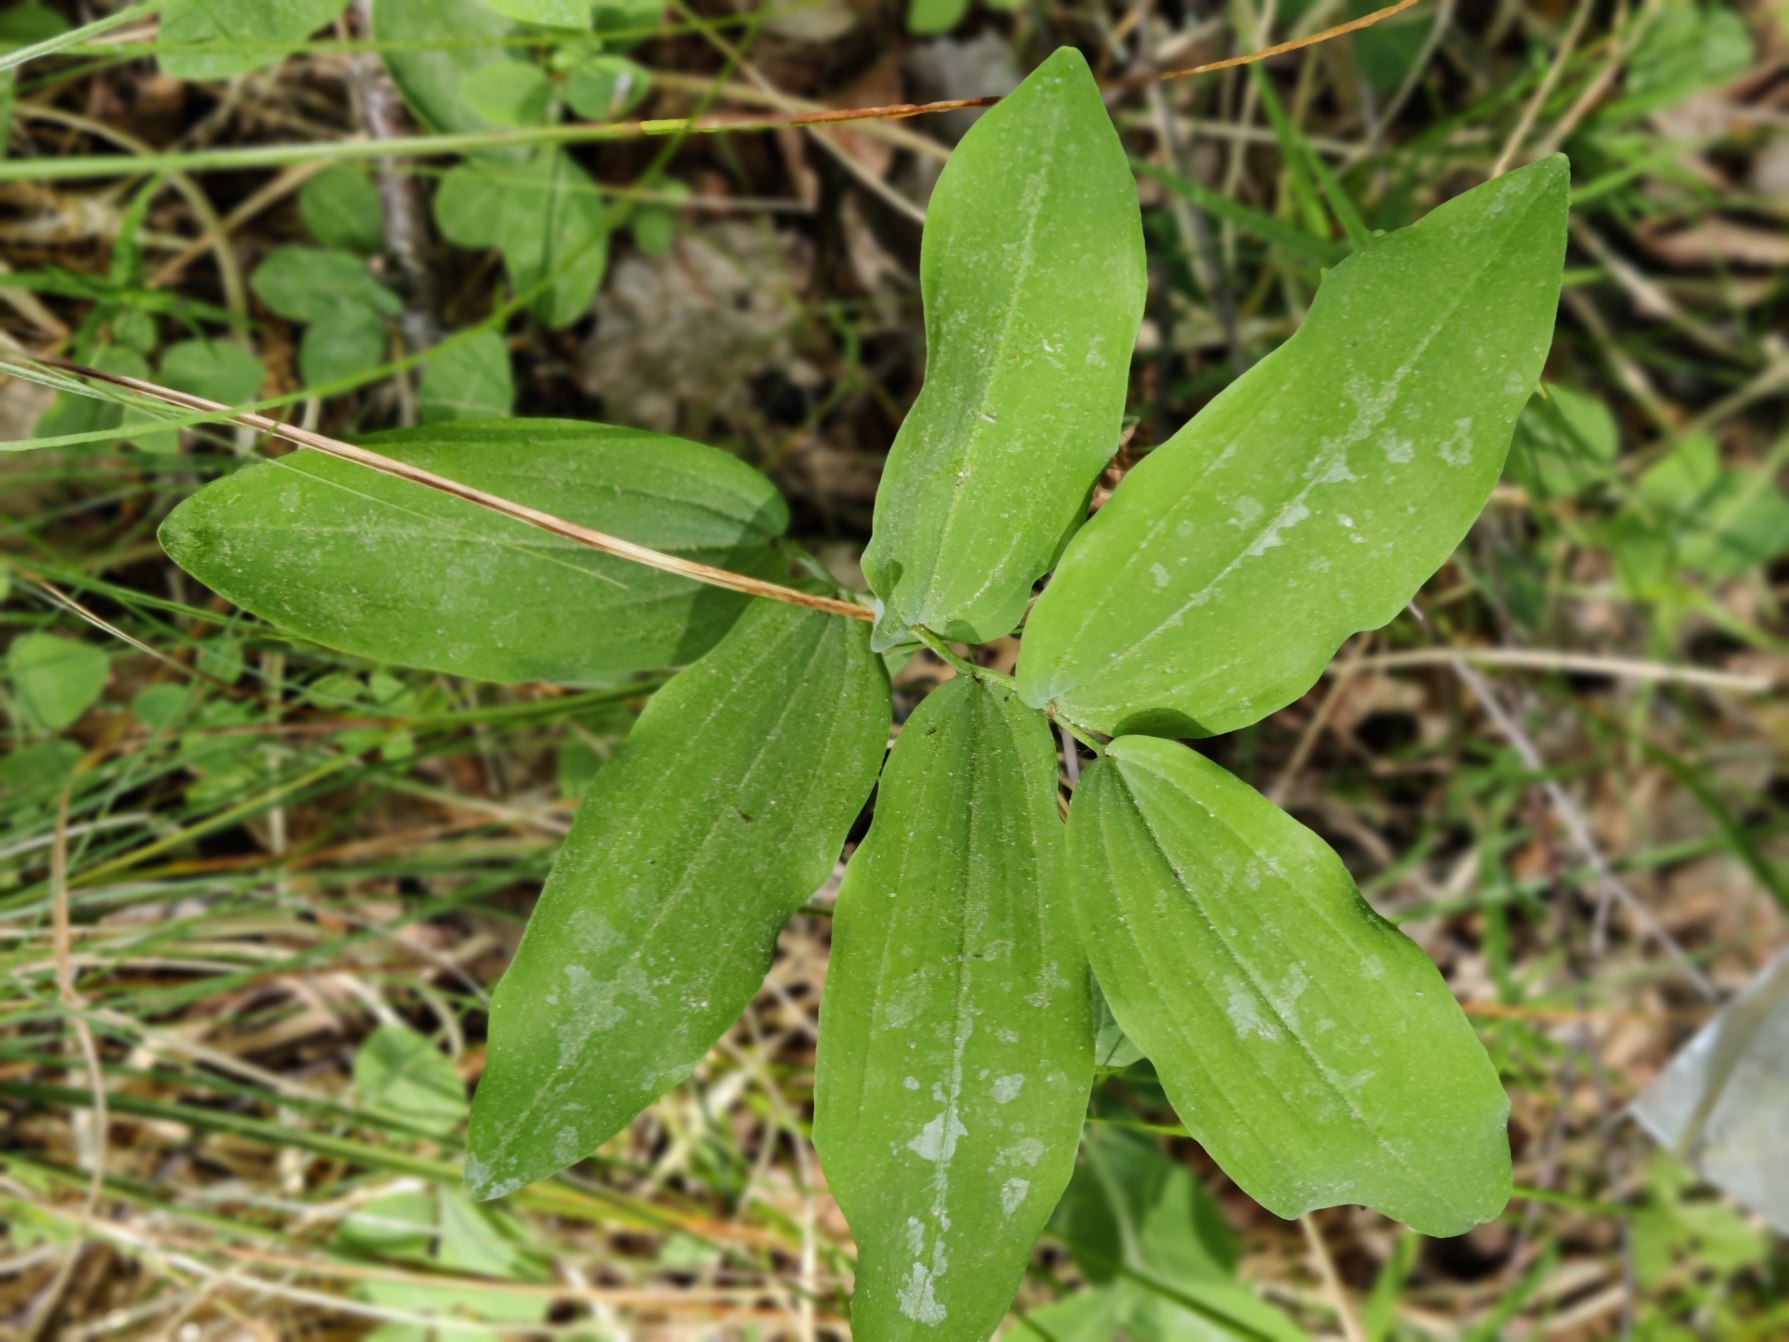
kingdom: Plantae
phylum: Tracheophyta
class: Liliopsida
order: Asparagales
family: Asparagaceae
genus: Polygonatum
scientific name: Polygonatum multiflorum
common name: Stor konval
